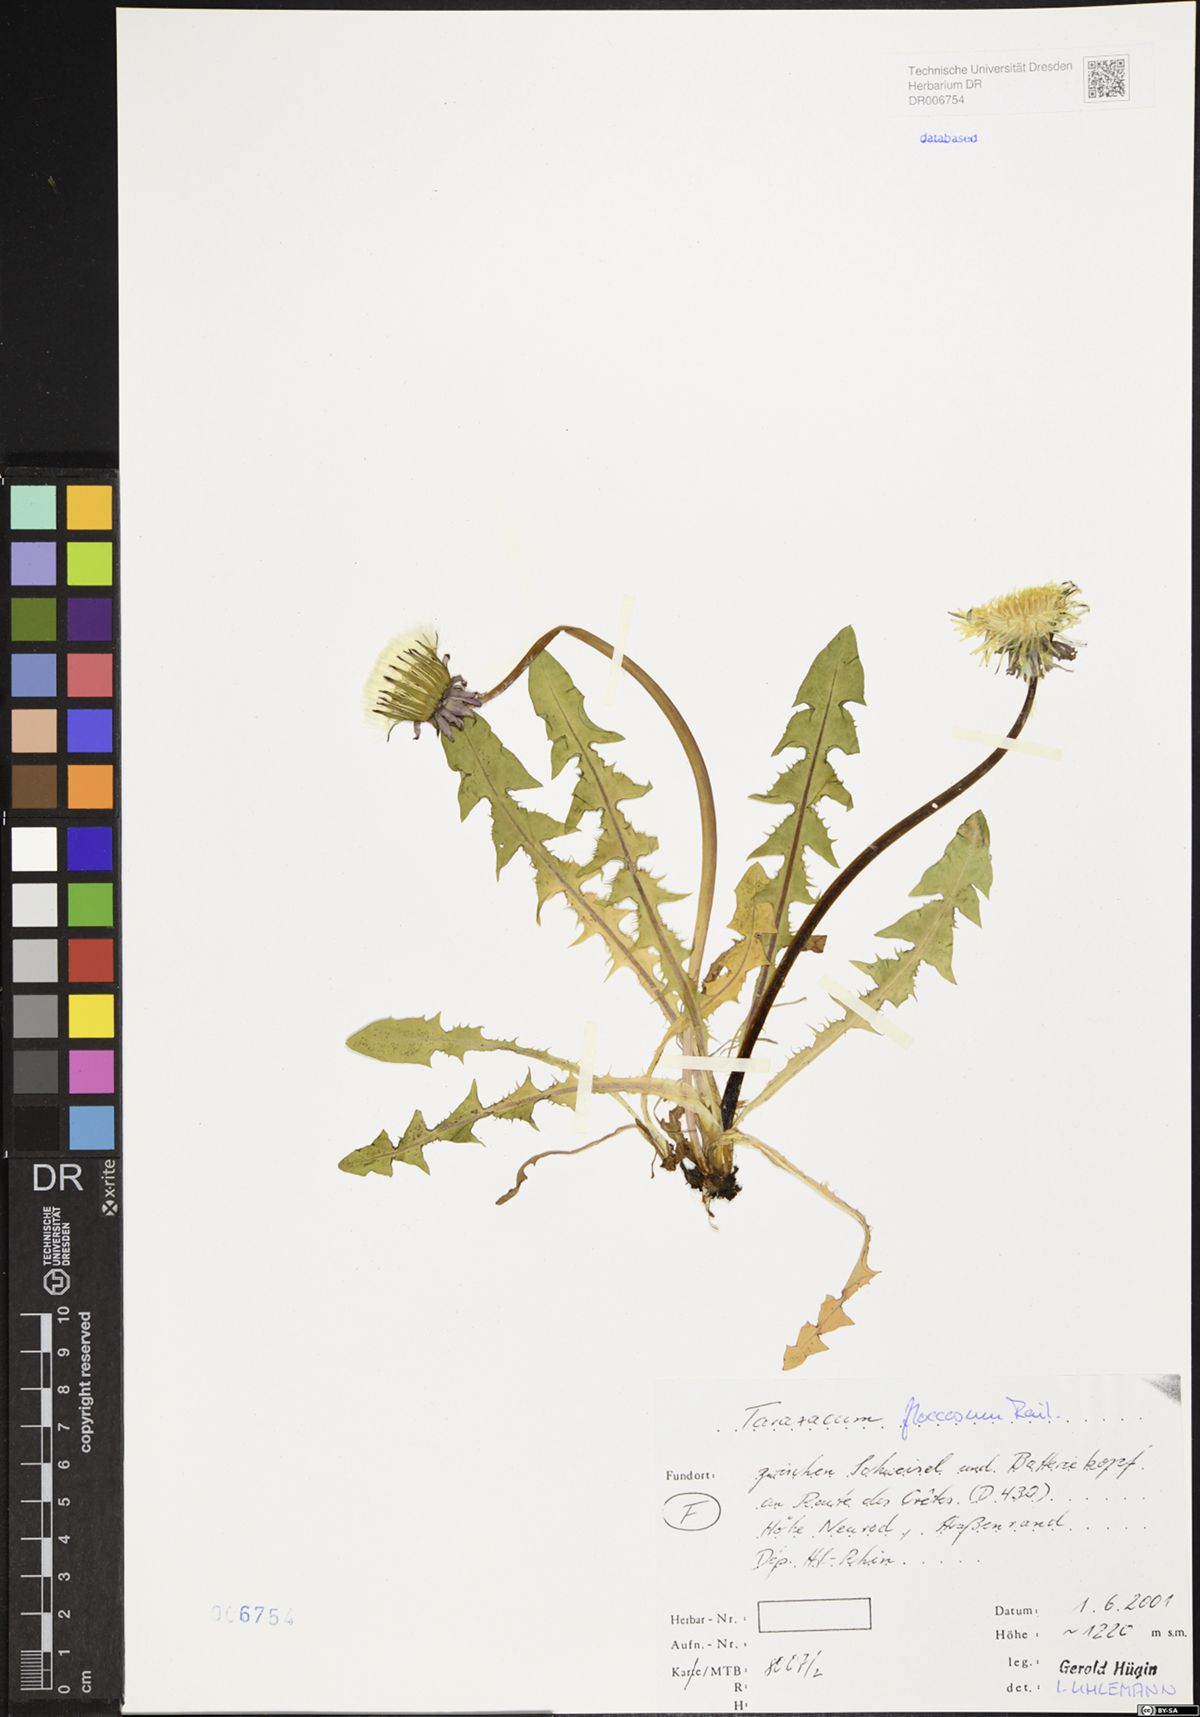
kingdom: Plantae
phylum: Tracheophyta
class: Magnoliopsida
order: Asterales
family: Asteraceae
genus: Taraxacum
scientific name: Taraxacum floccosum
